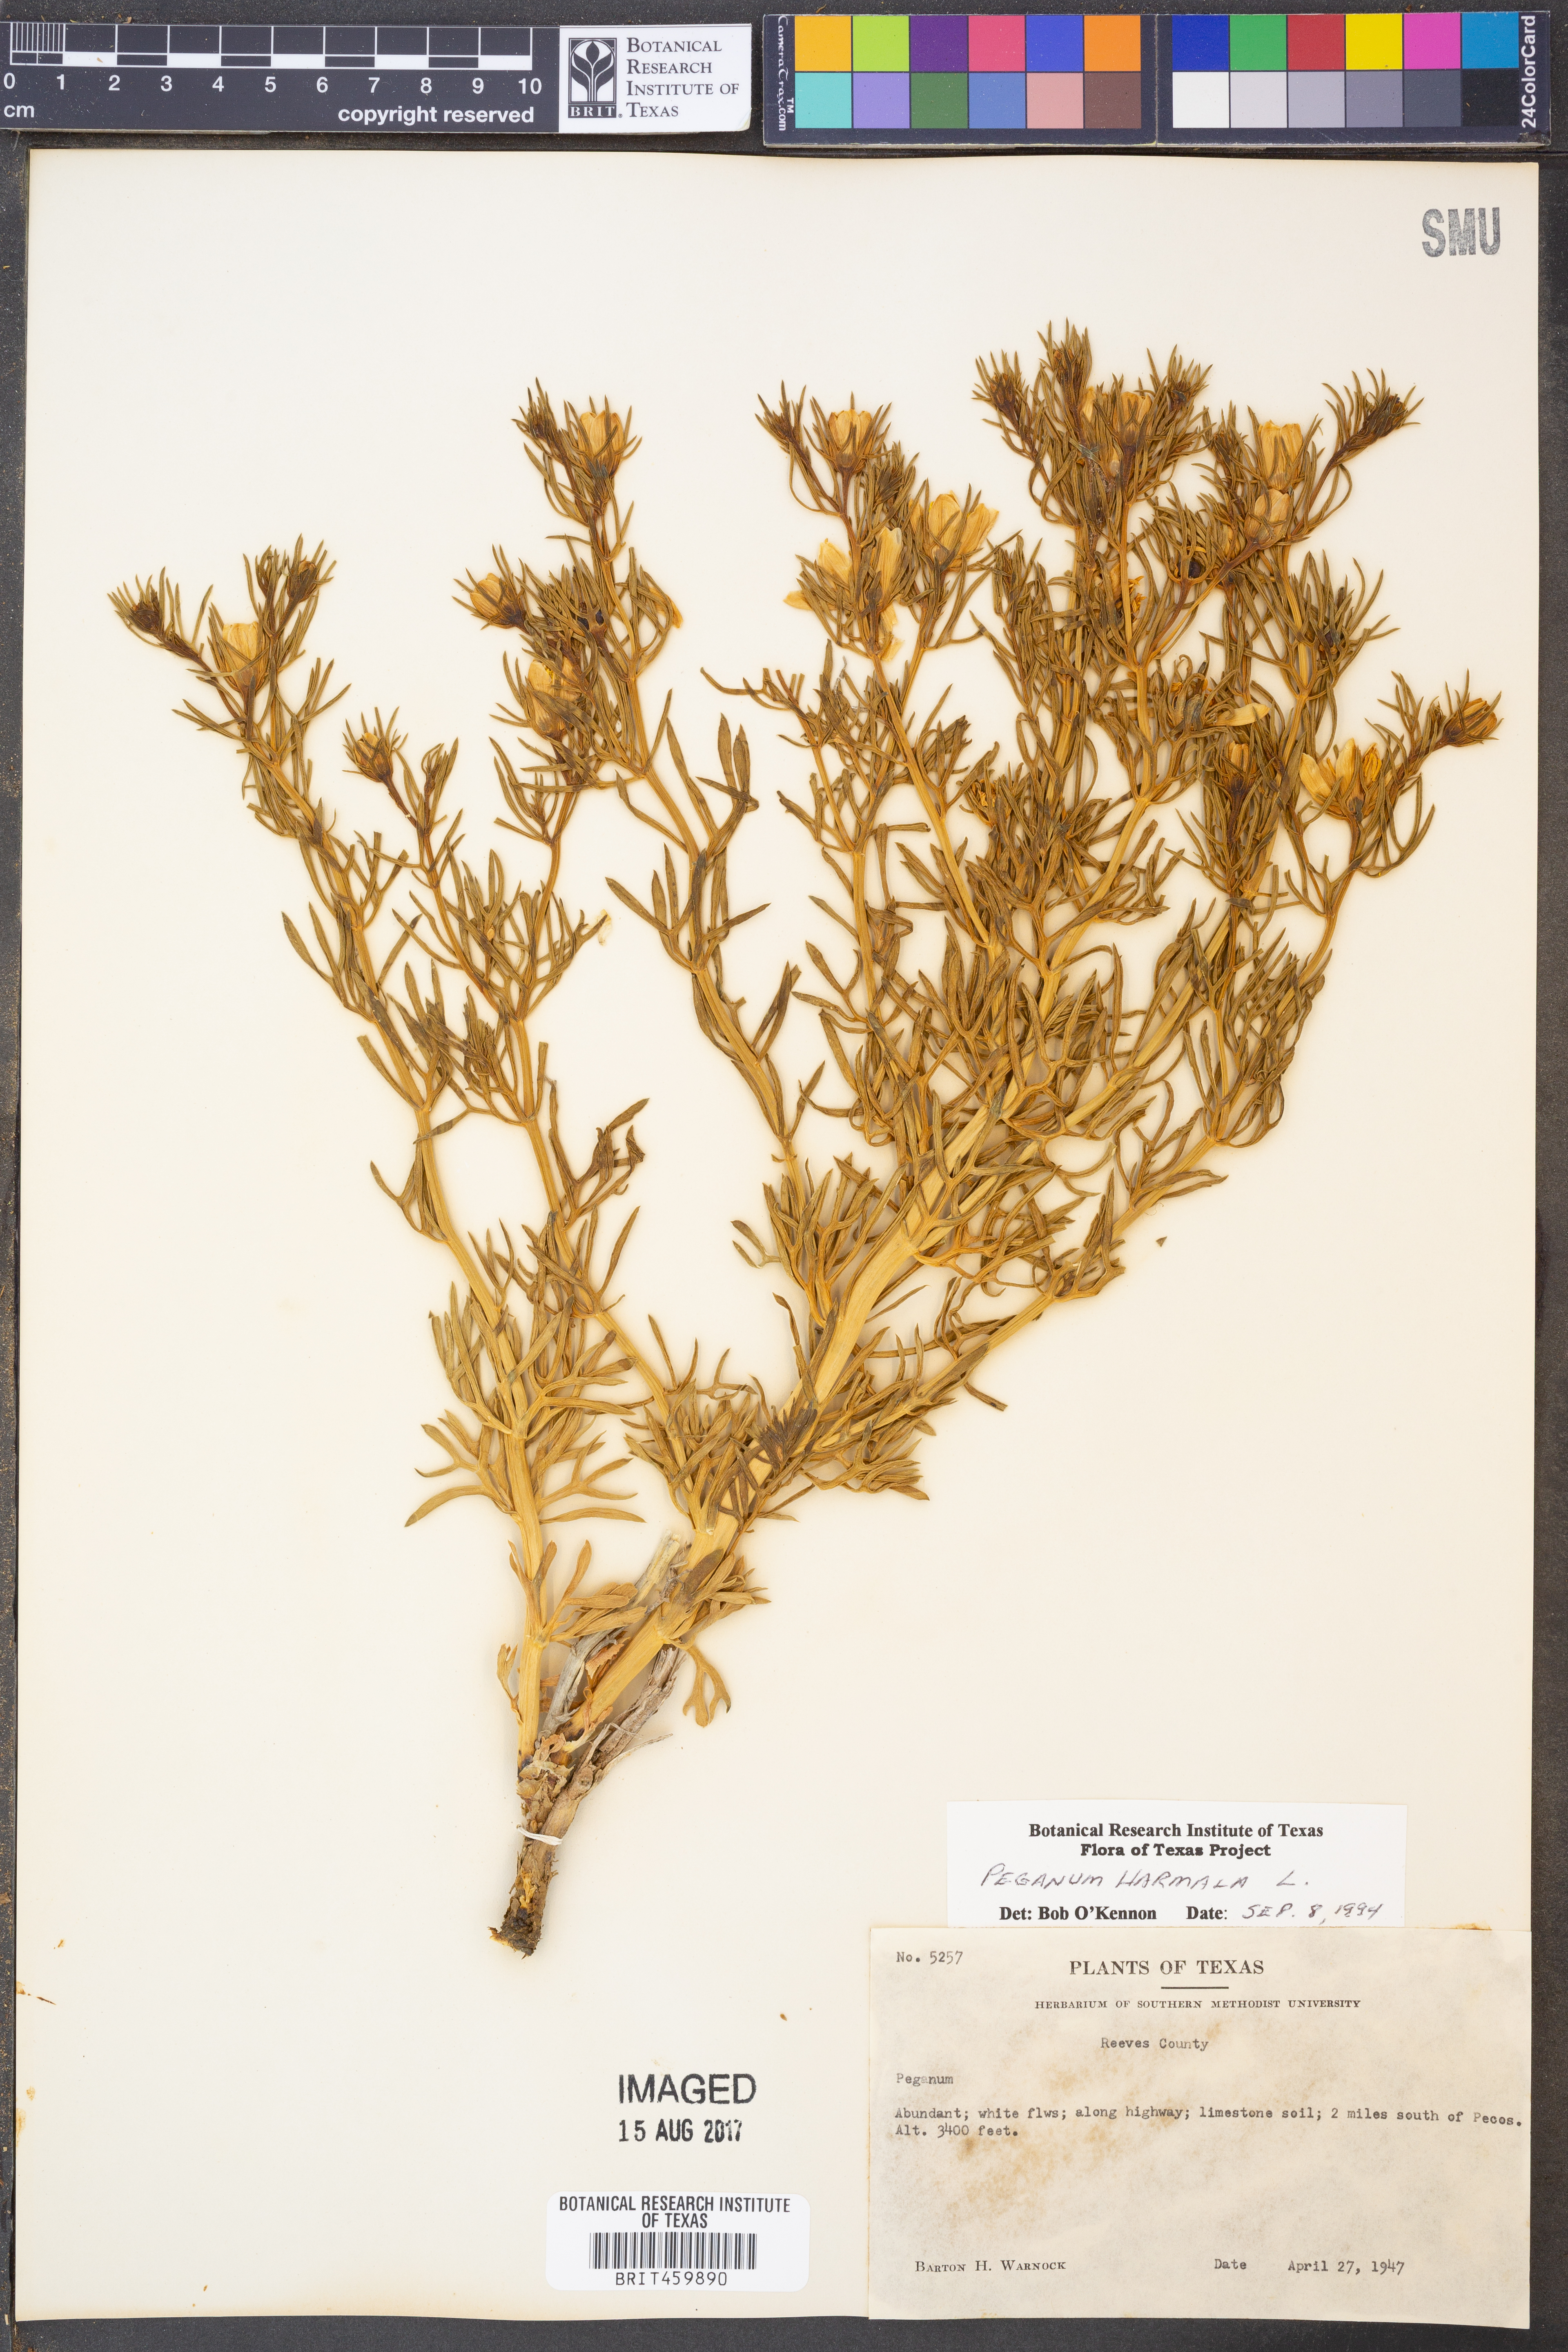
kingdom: Plantae
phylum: Tracheophyta
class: Magnoliopsida
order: Sapindales
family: Tetradiclidaceae
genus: Peganum
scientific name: Peganum harmala
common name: Harmal peganum
